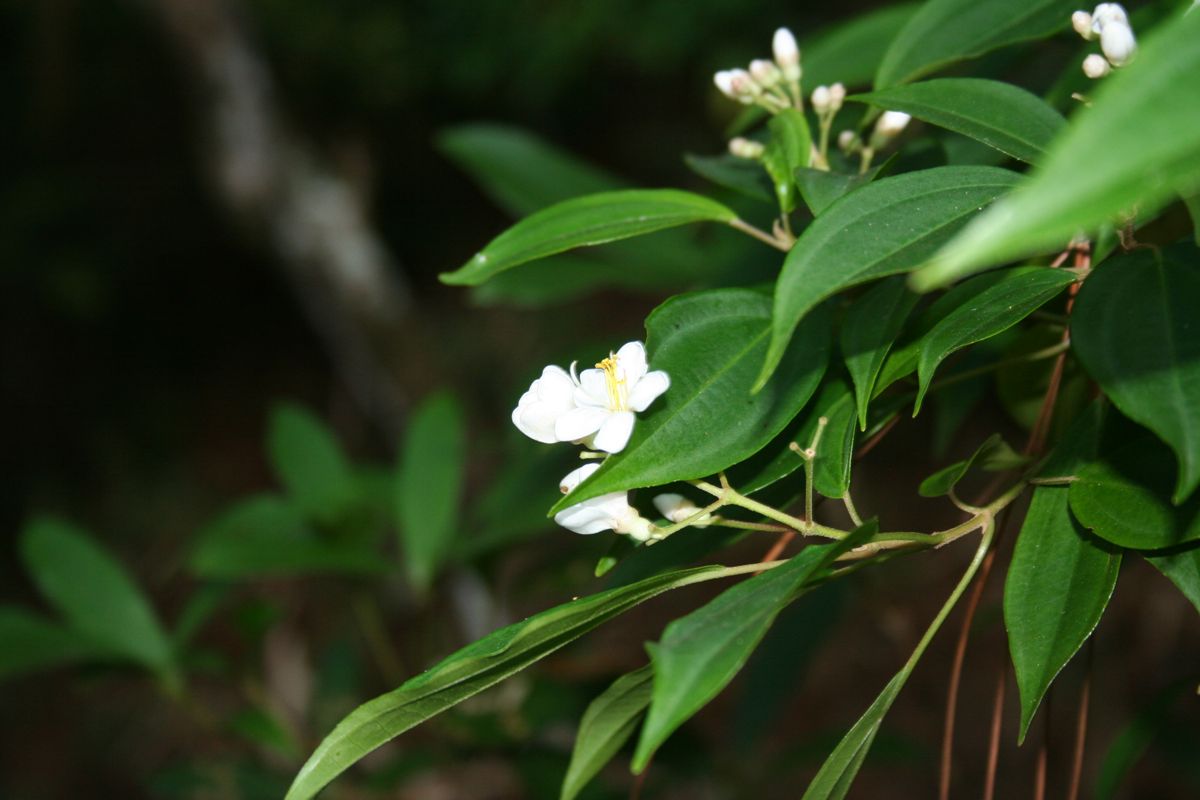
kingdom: Plantae
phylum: Tracheophyta
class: Magnoliopsida
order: Myrtales
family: Melastomataceae
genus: Miconia
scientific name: Miconia mexicana
